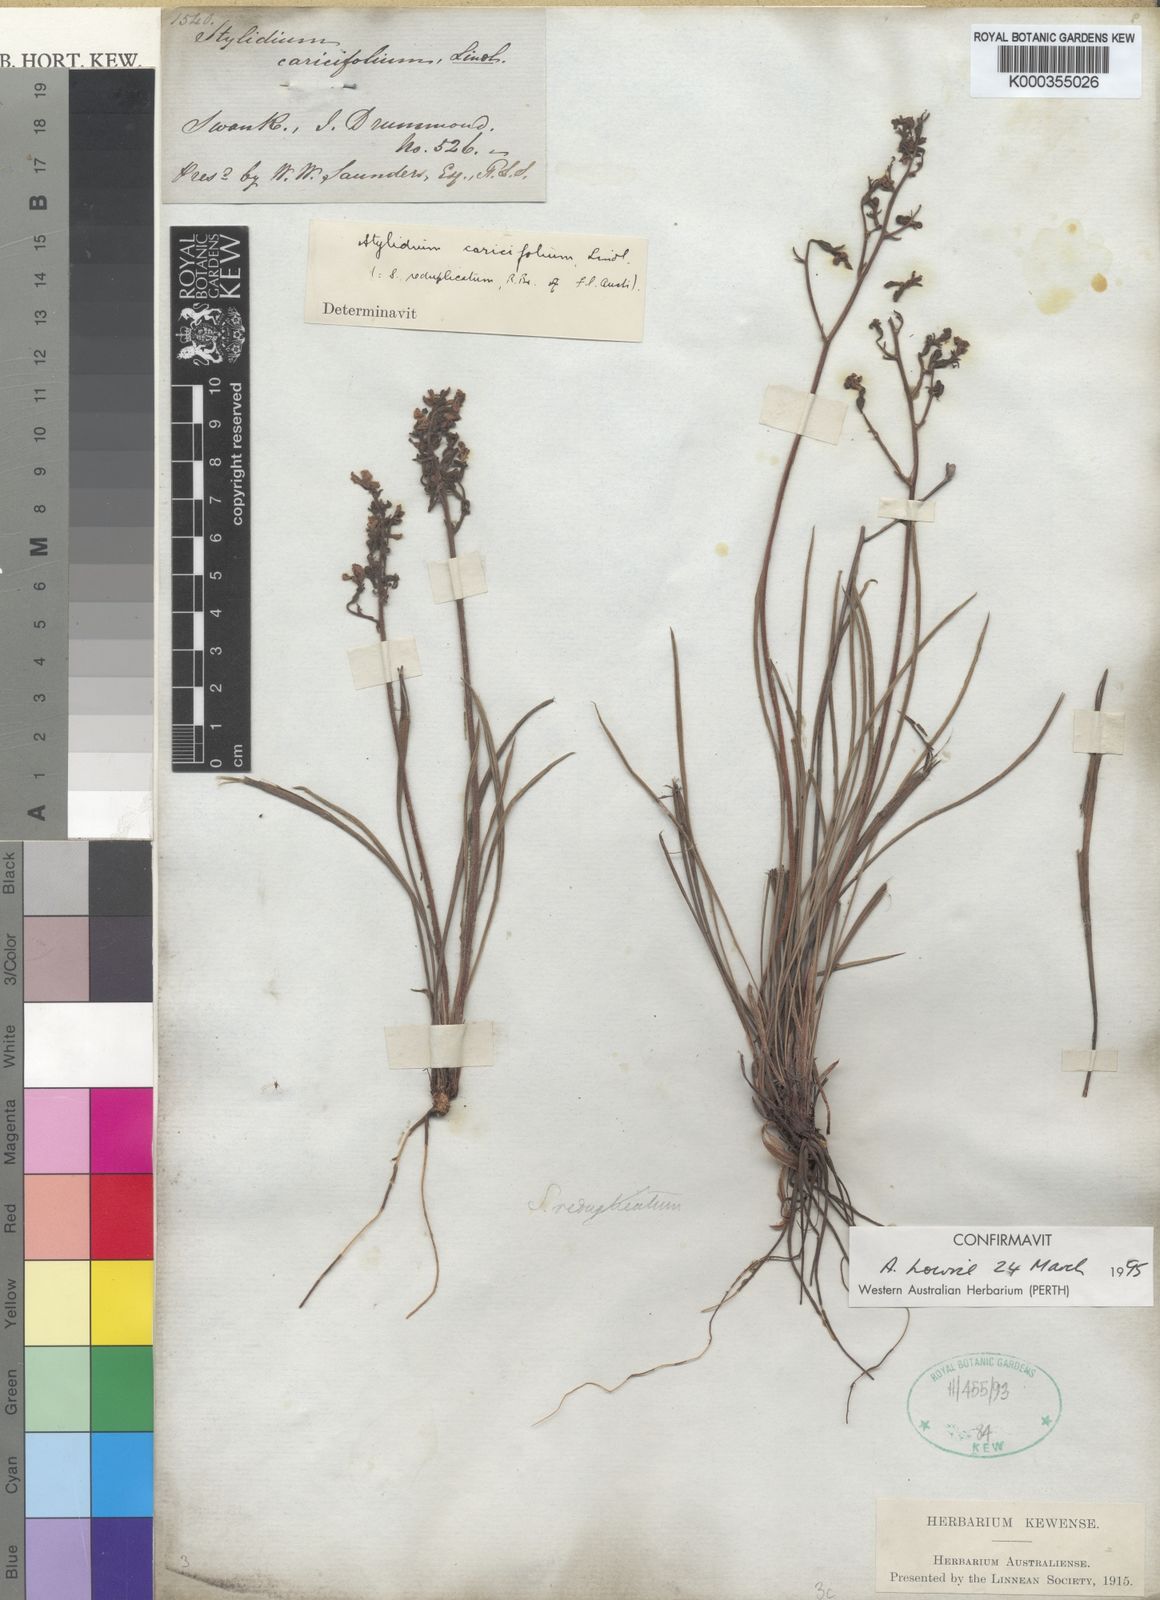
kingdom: Plantae
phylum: Tracheophyta
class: Magnoliopsida
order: Asterales
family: Stylidiaceae
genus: Stylidium
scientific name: Stylidium caricifolium
